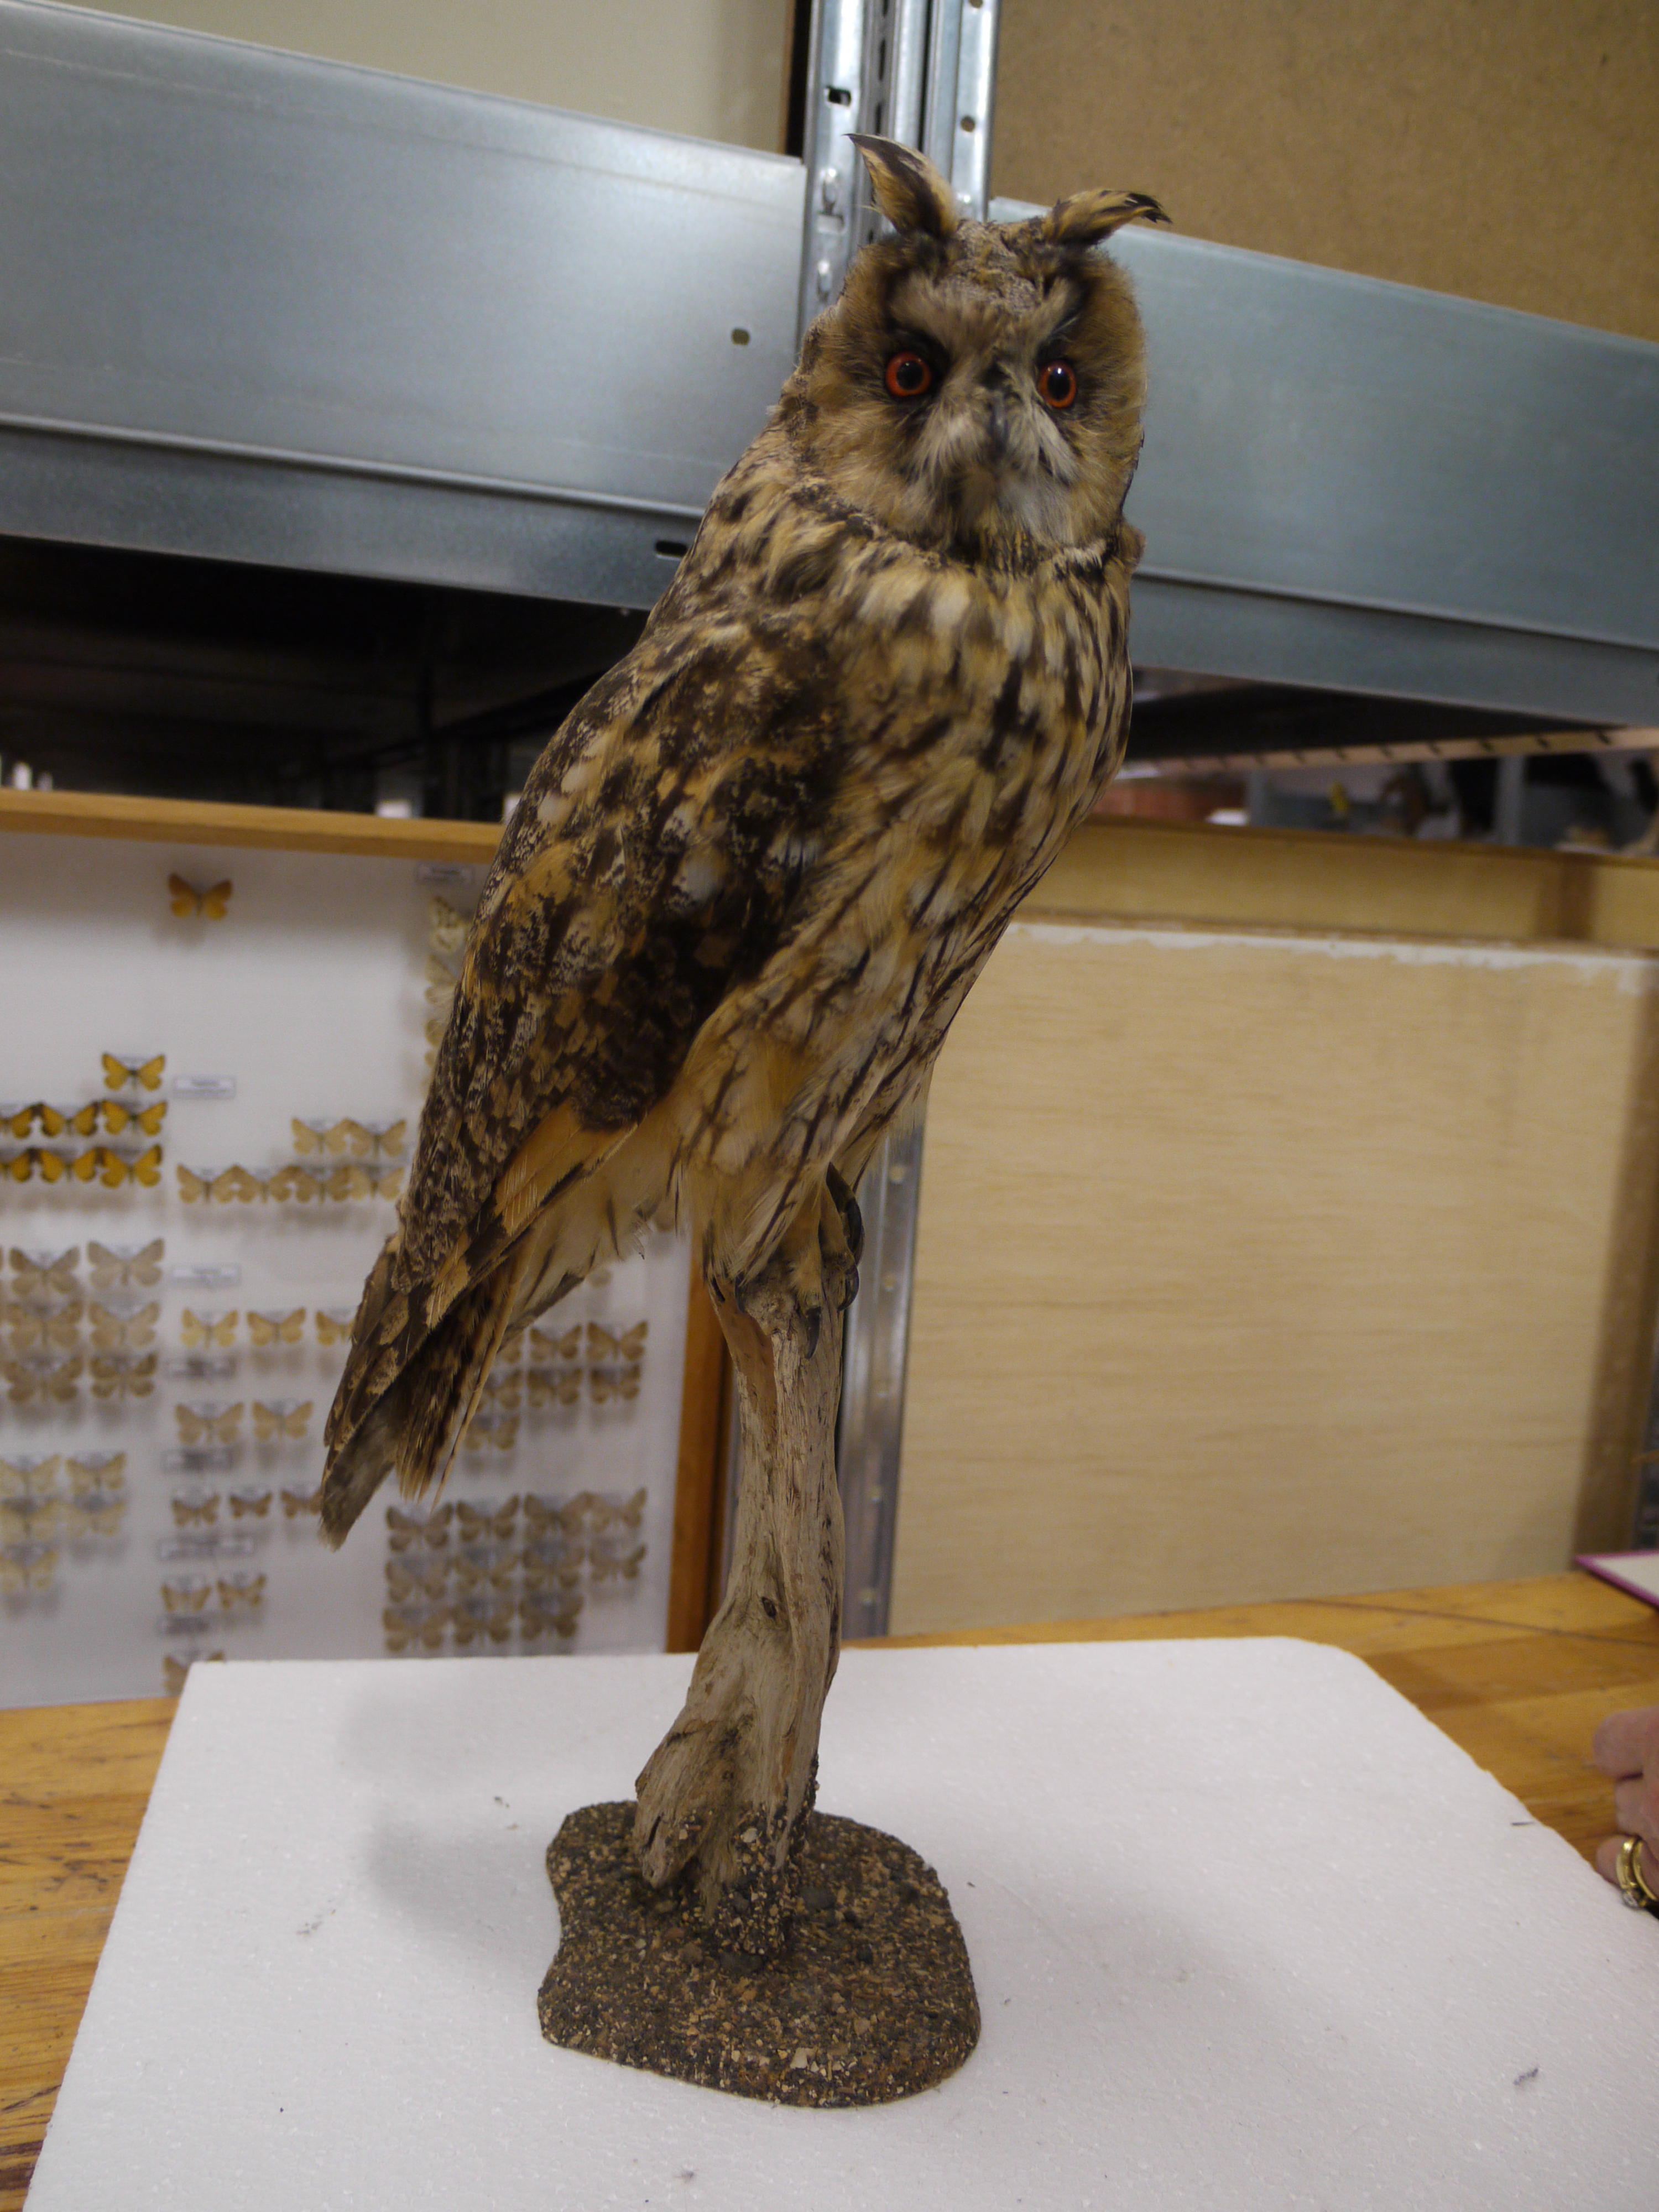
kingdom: Animalia
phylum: Chordata
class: Aves
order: Strigiformes
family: Strigidae
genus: Asio
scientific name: Asio otus
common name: Long-eared owl
